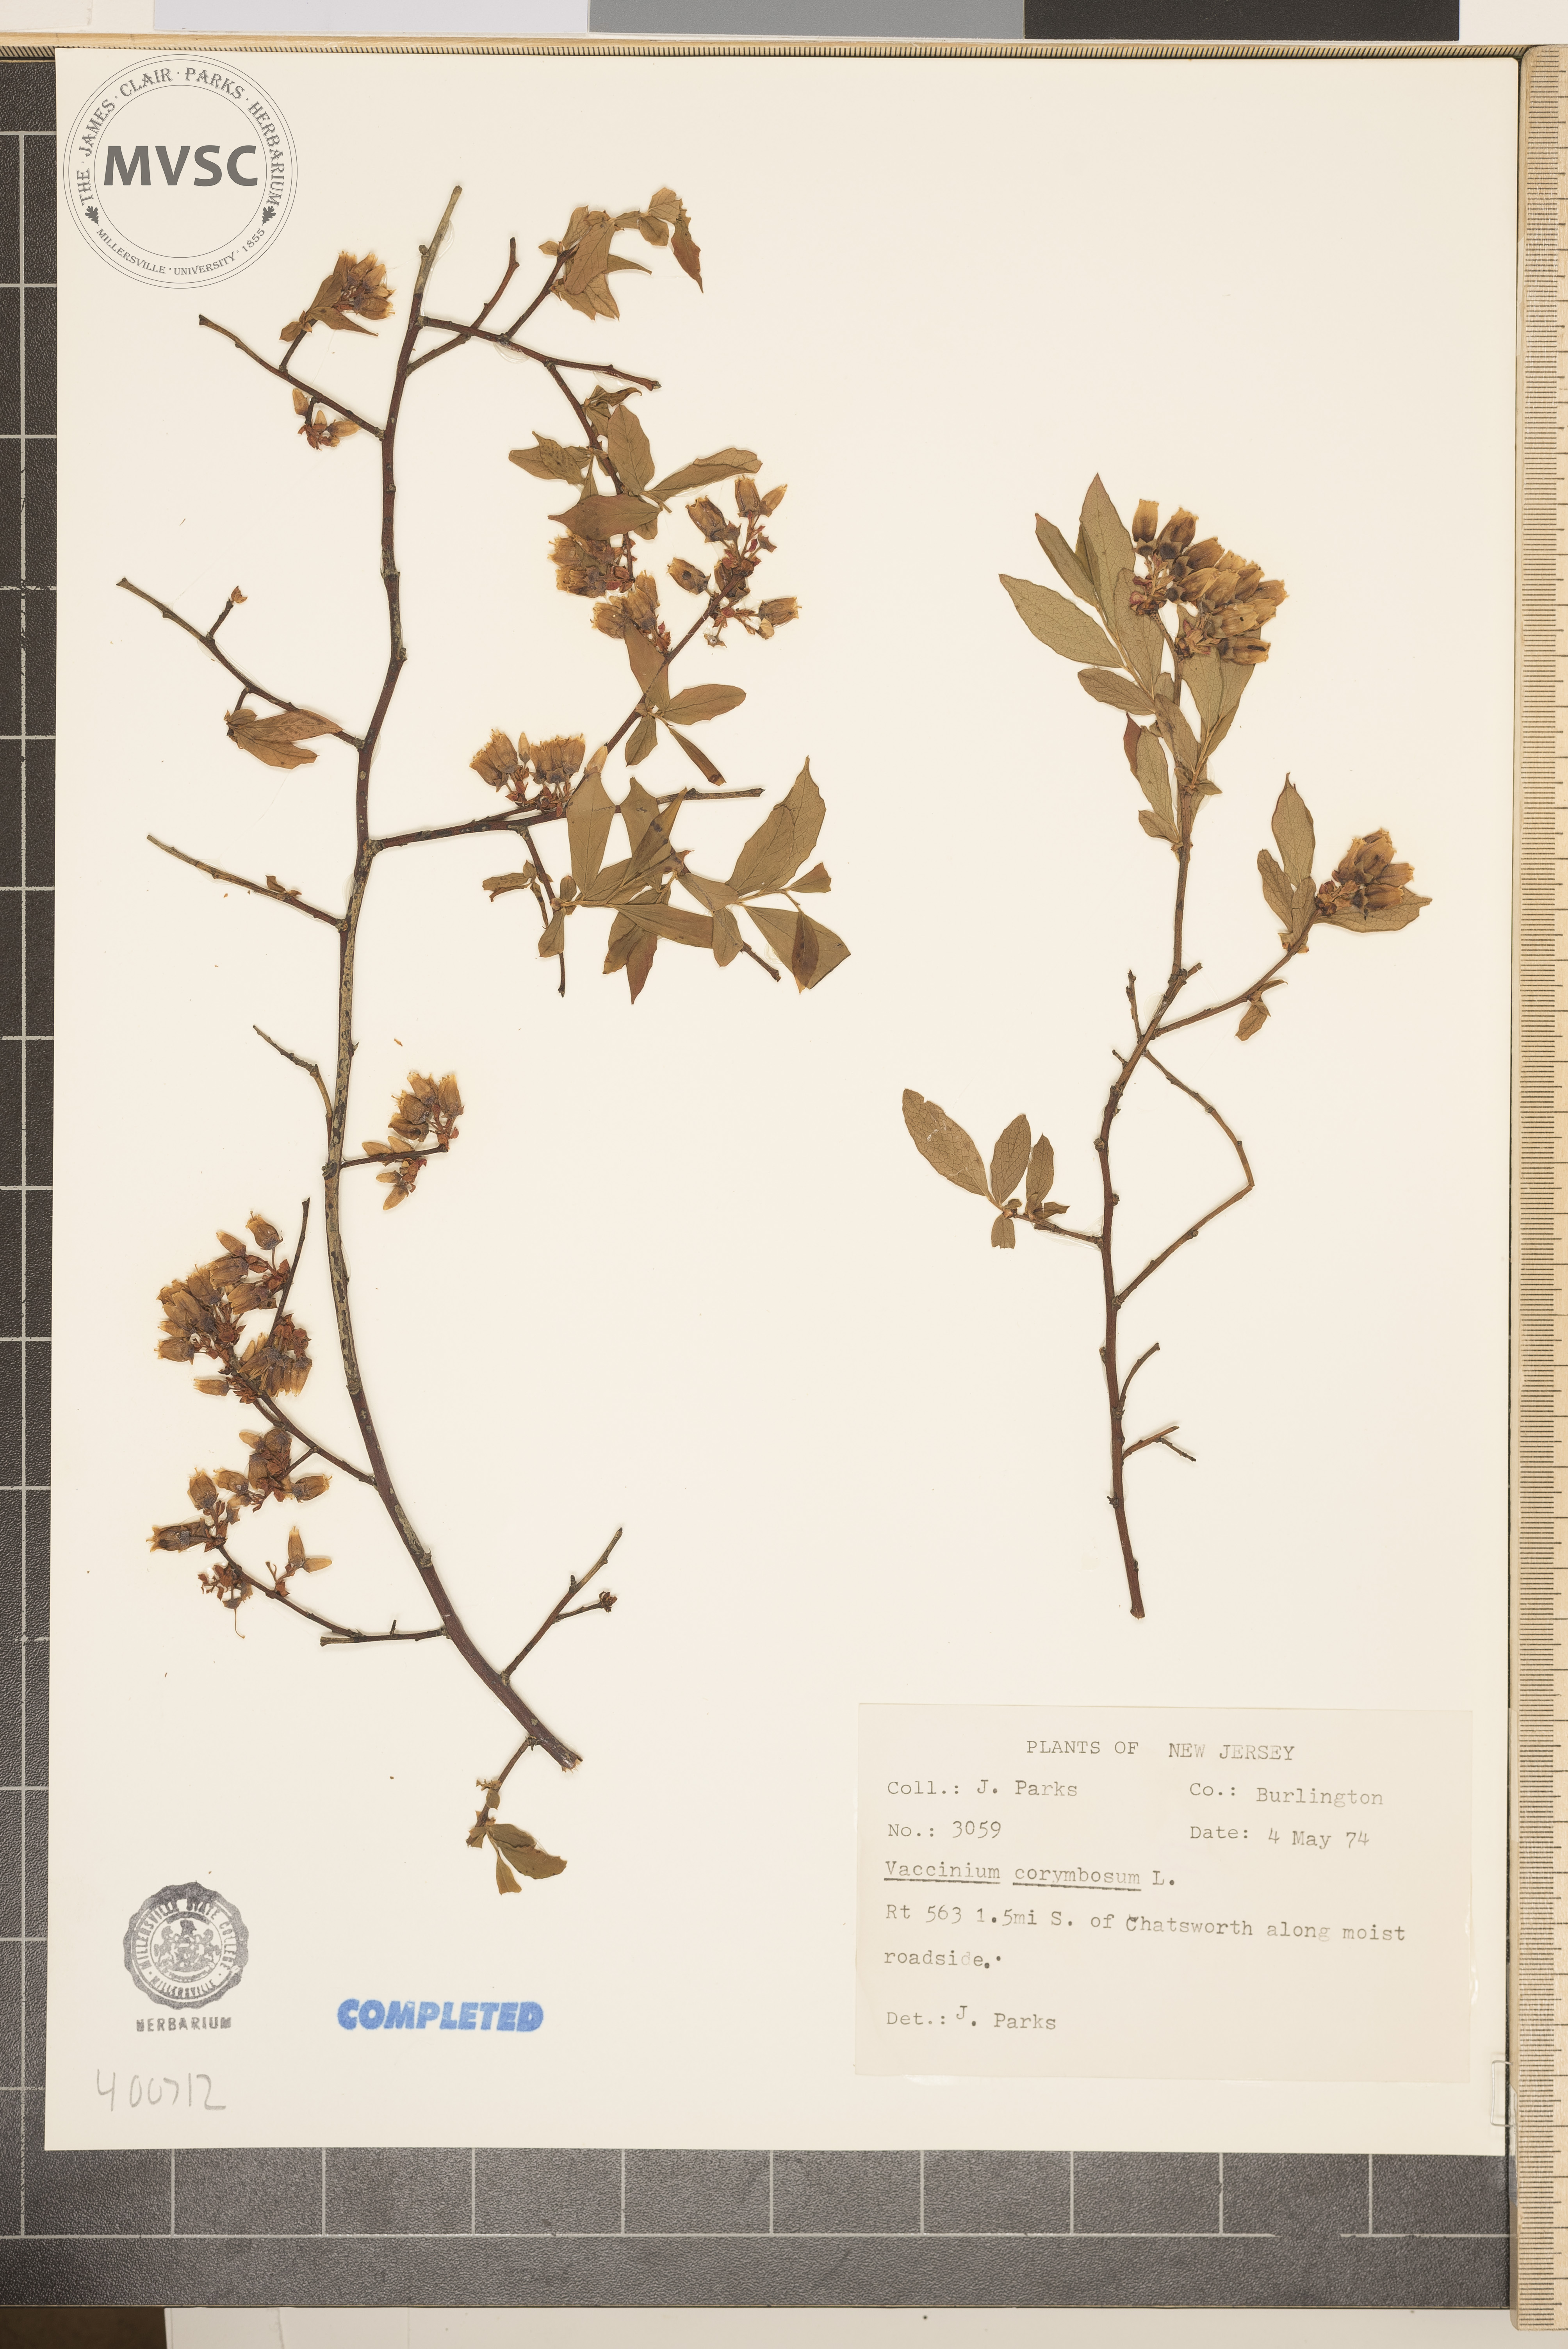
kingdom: Plantae
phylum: Tracheophyta
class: Magnoliopsida
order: Ericales
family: Ericaceae
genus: Vaccinium
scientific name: Vaccinium corymbosum
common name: blueberry
